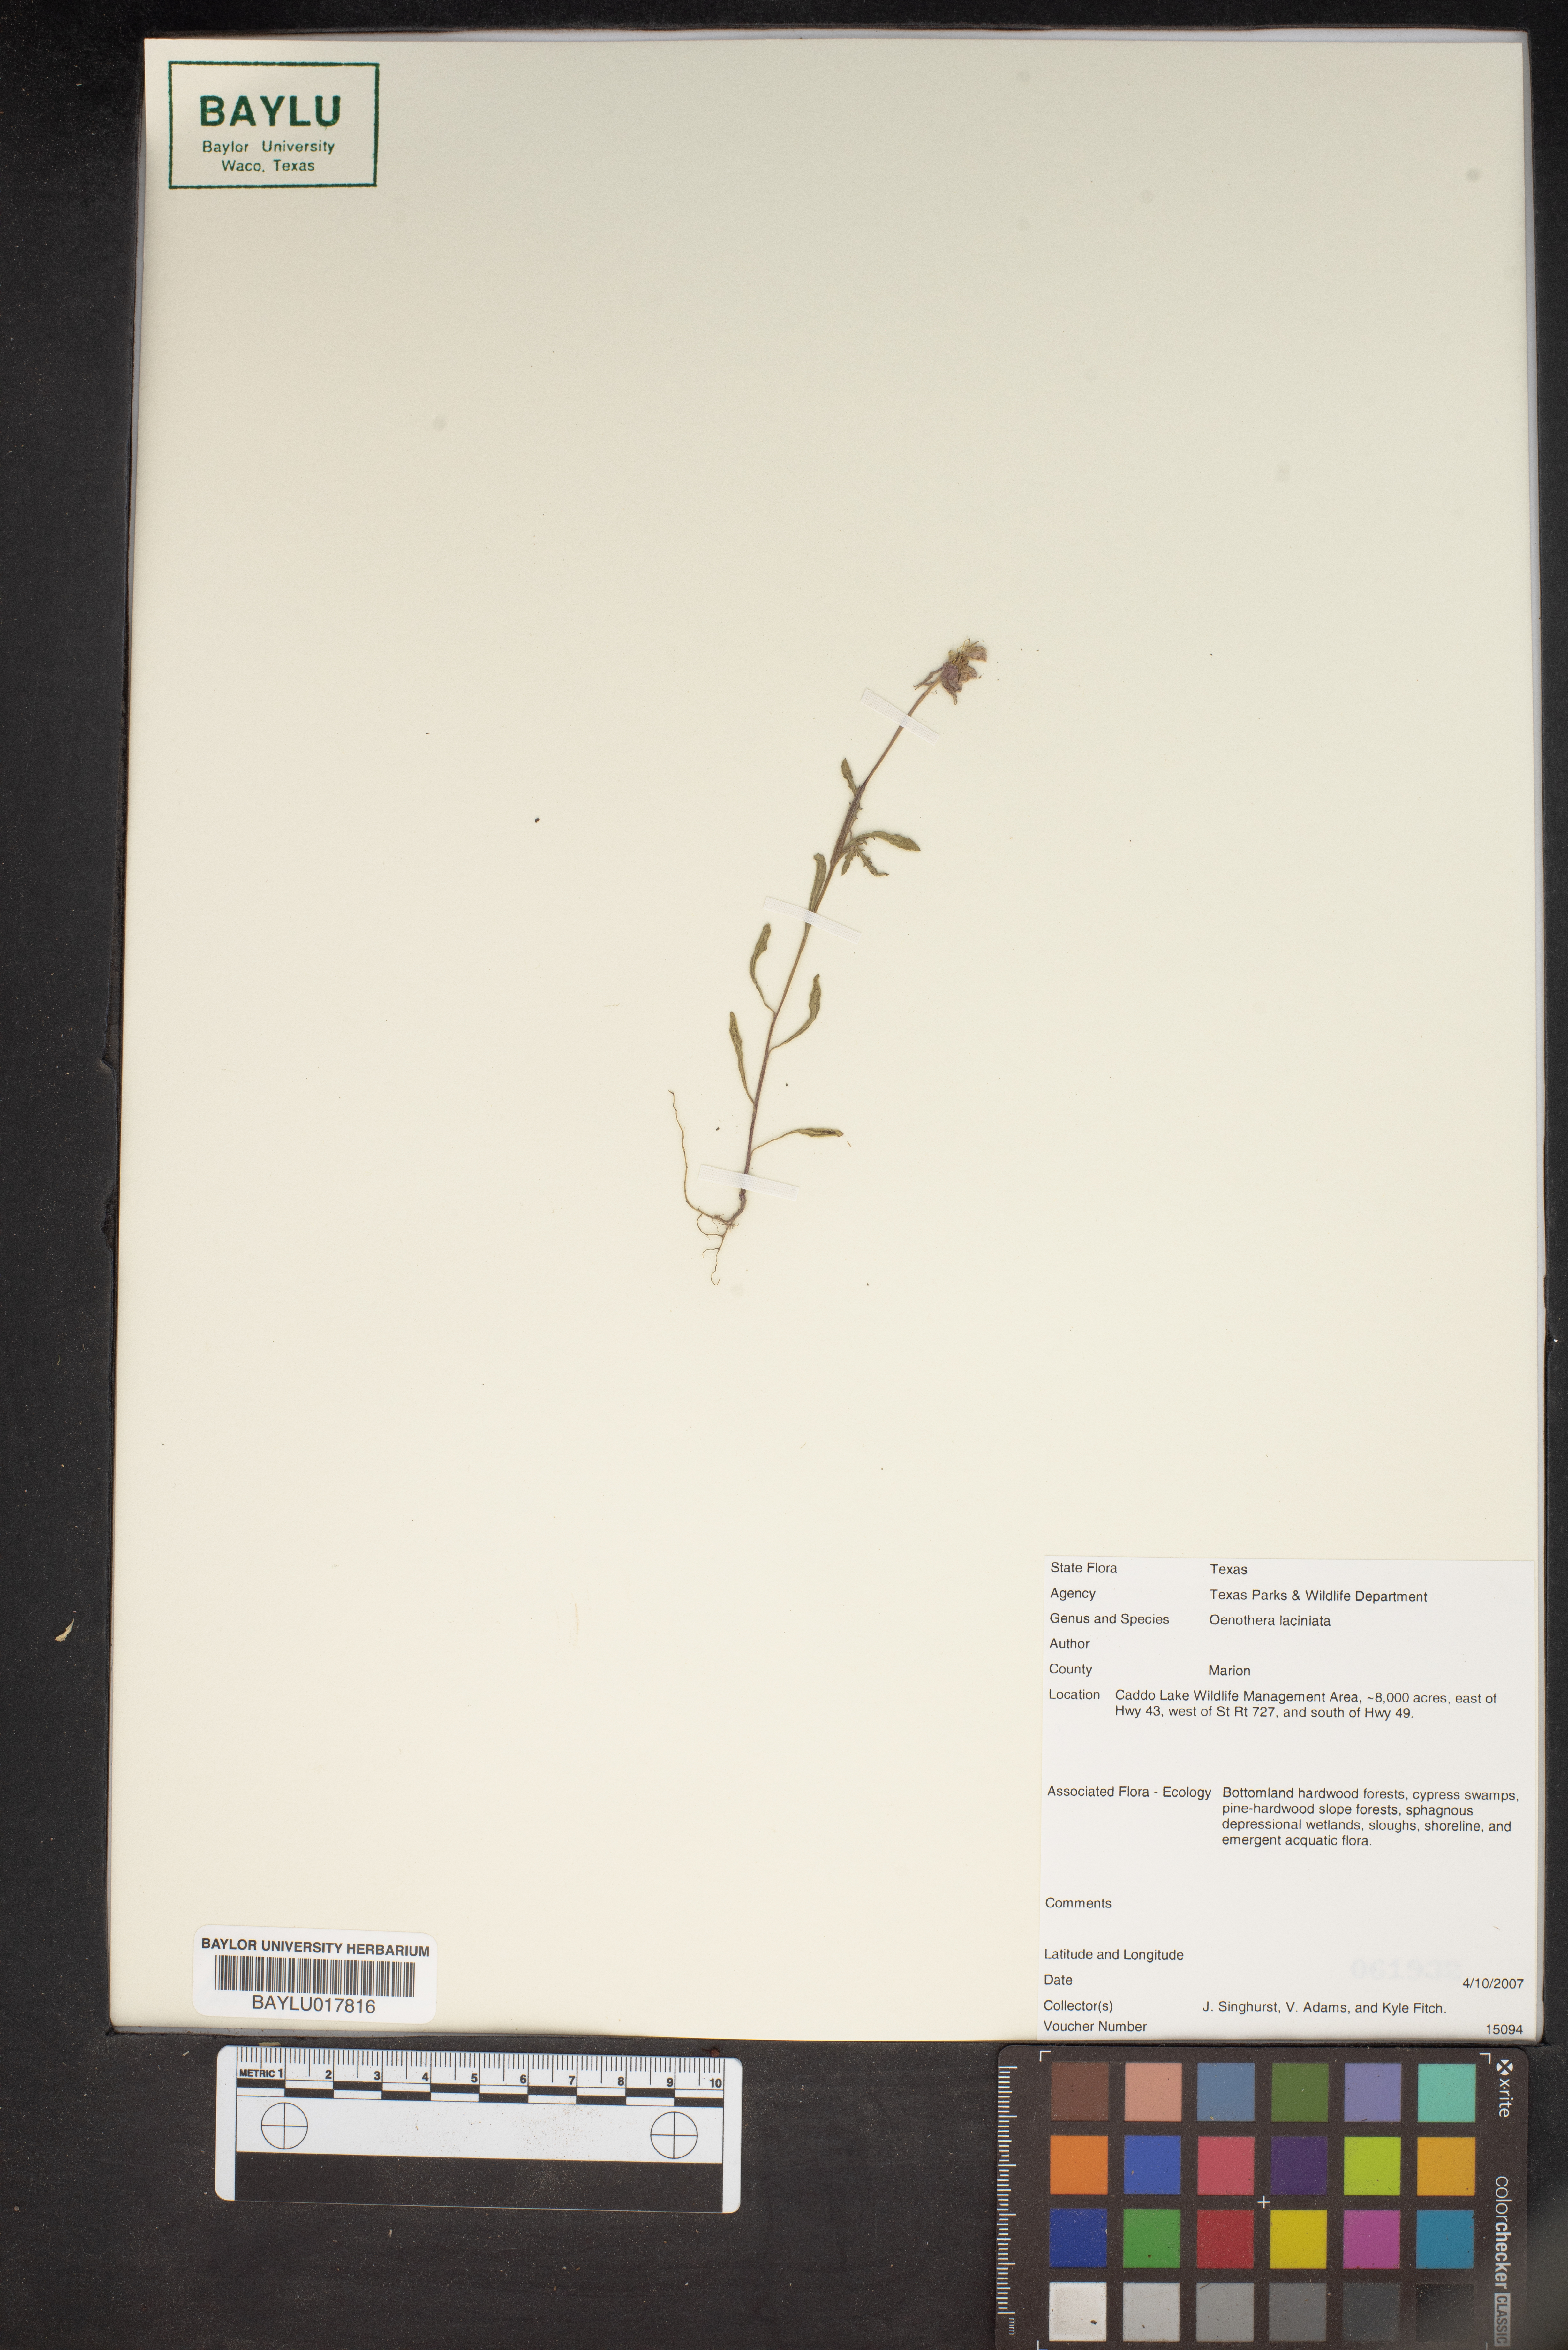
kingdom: Plantae
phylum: Tracheophyta
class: Magnoliopsida
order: Myrtales
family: Onagraceae
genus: Oenothera
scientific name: Oenothera laciniata
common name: Cut-leaved evening-primrose
